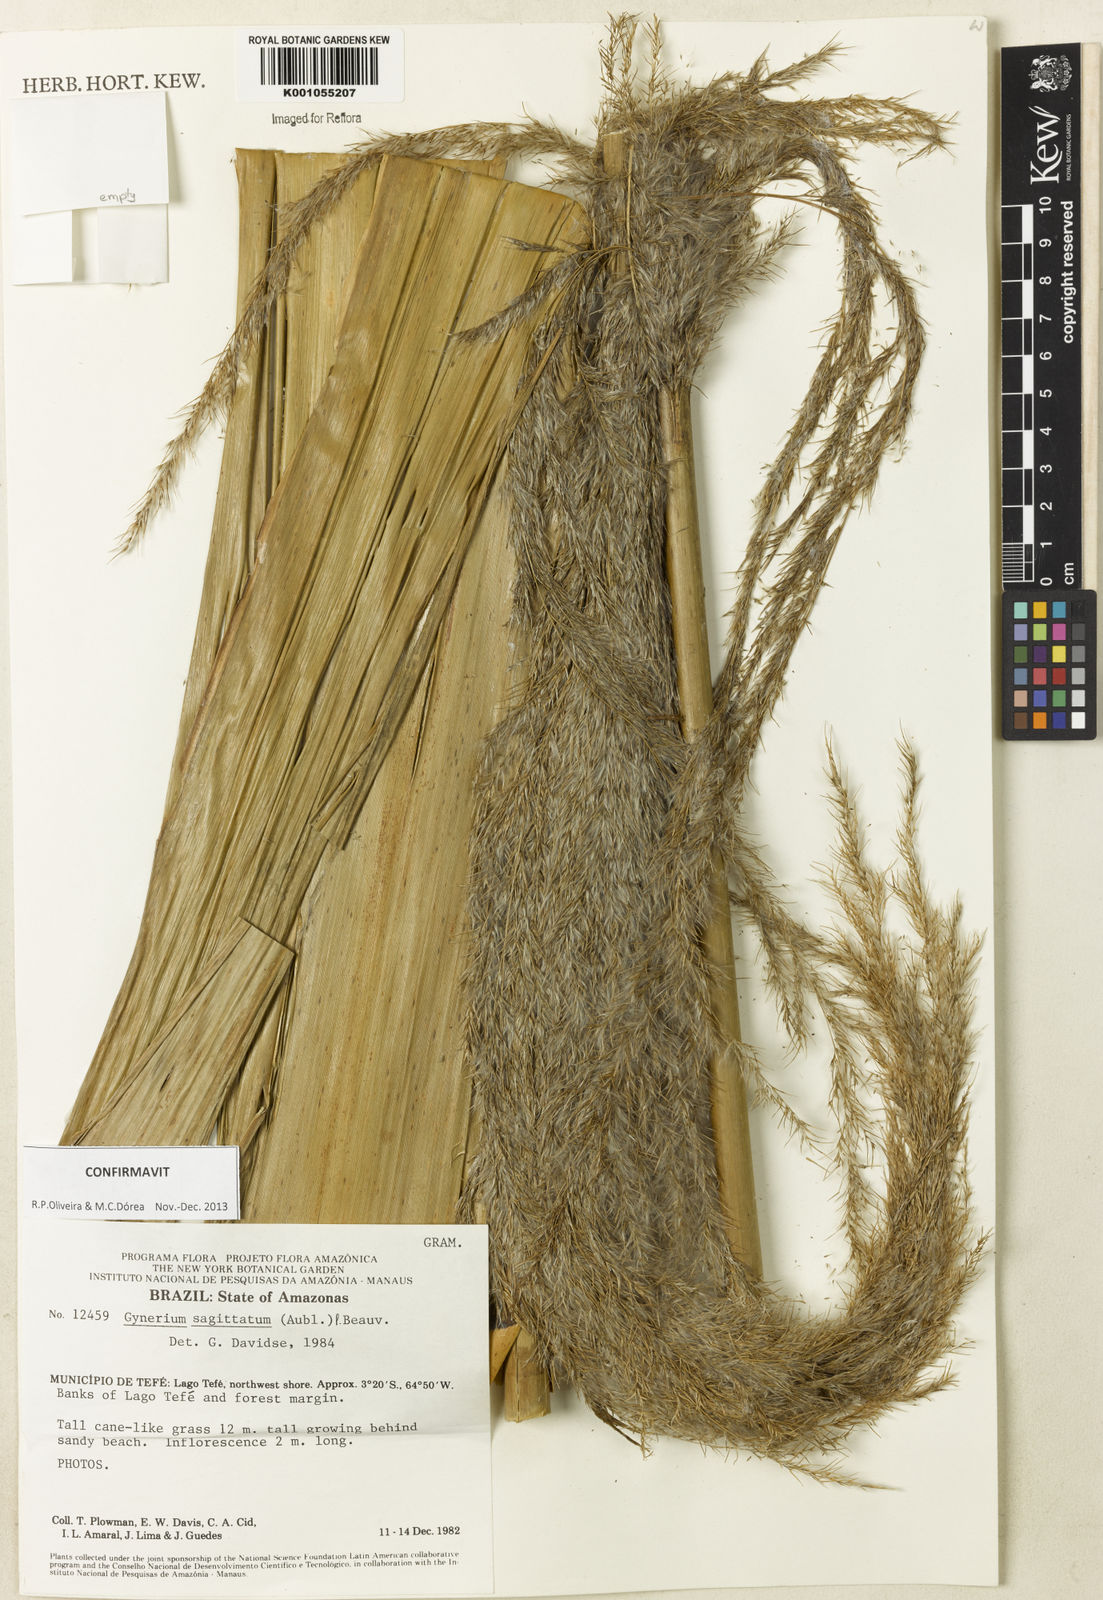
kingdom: Plantae
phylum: Tracheophyta
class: Liliopsida
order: Poales
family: Poaceae
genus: Gynerium
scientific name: Gynerium sagittatum
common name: Wild cane
